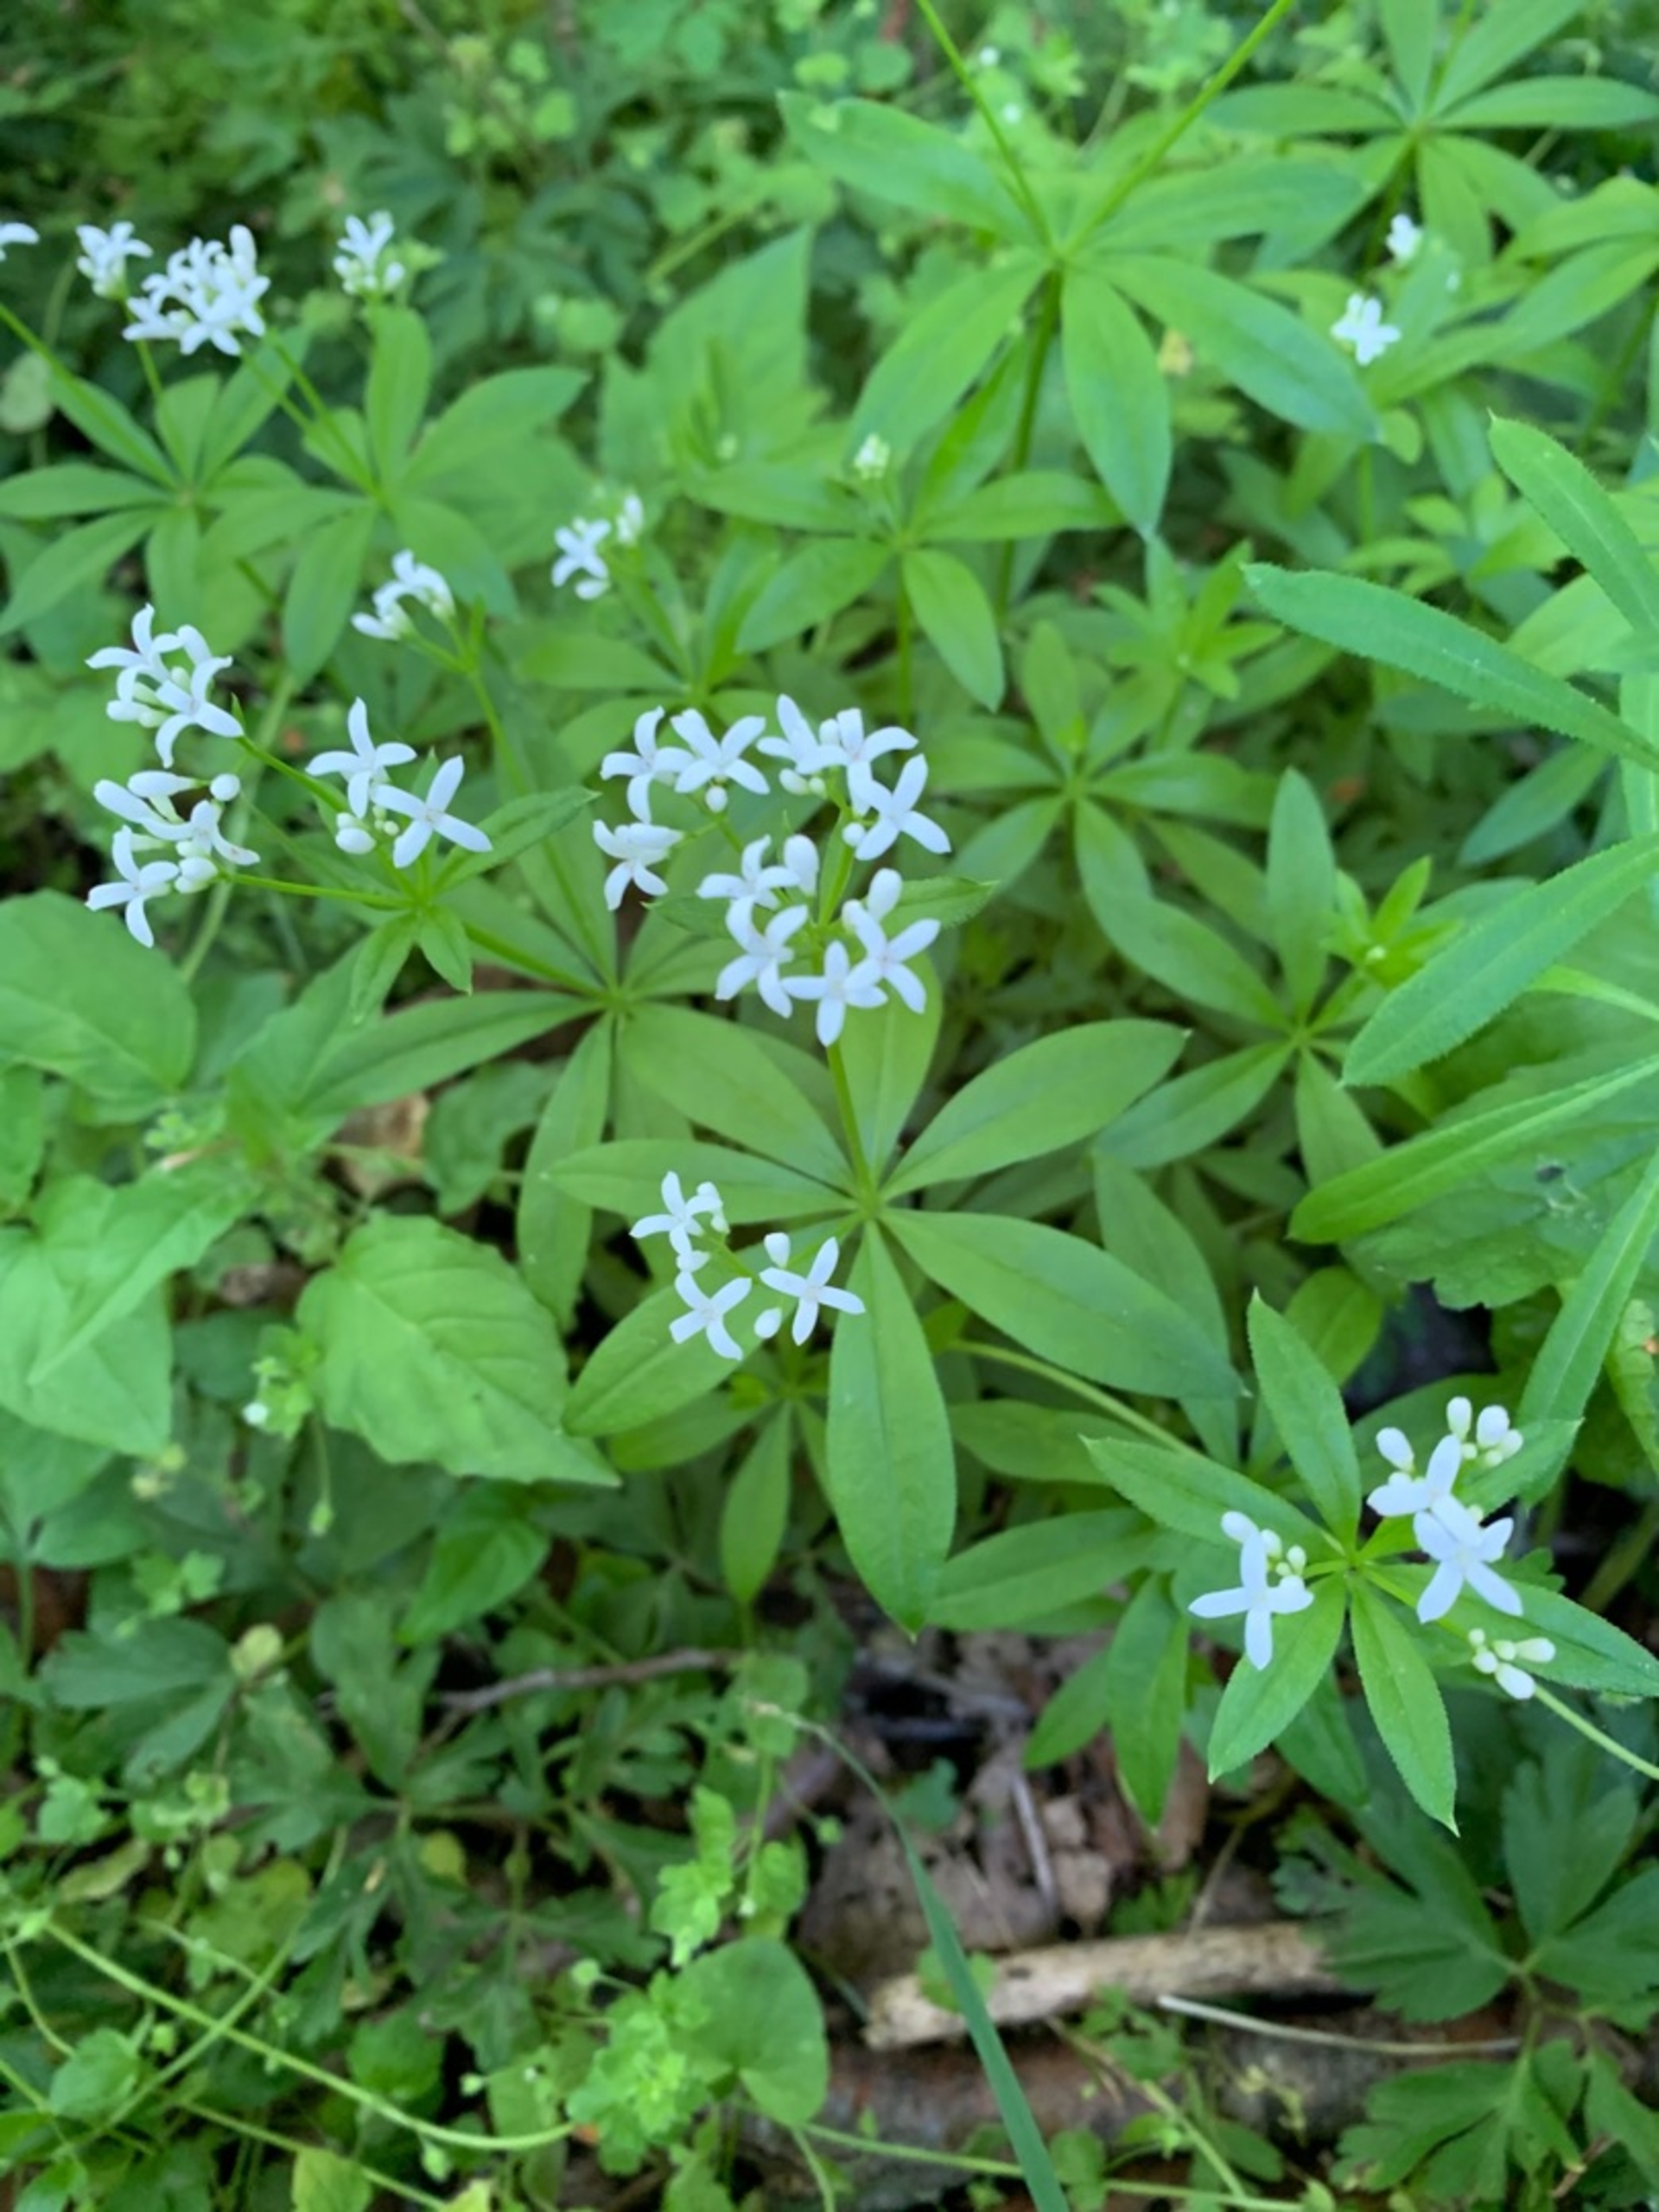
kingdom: Plantae
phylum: Tracheophyta
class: Magnoliopsida
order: Gentianales
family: Rubiaceae
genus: Galium
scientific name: Galium odoratum
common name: Skovmærke
